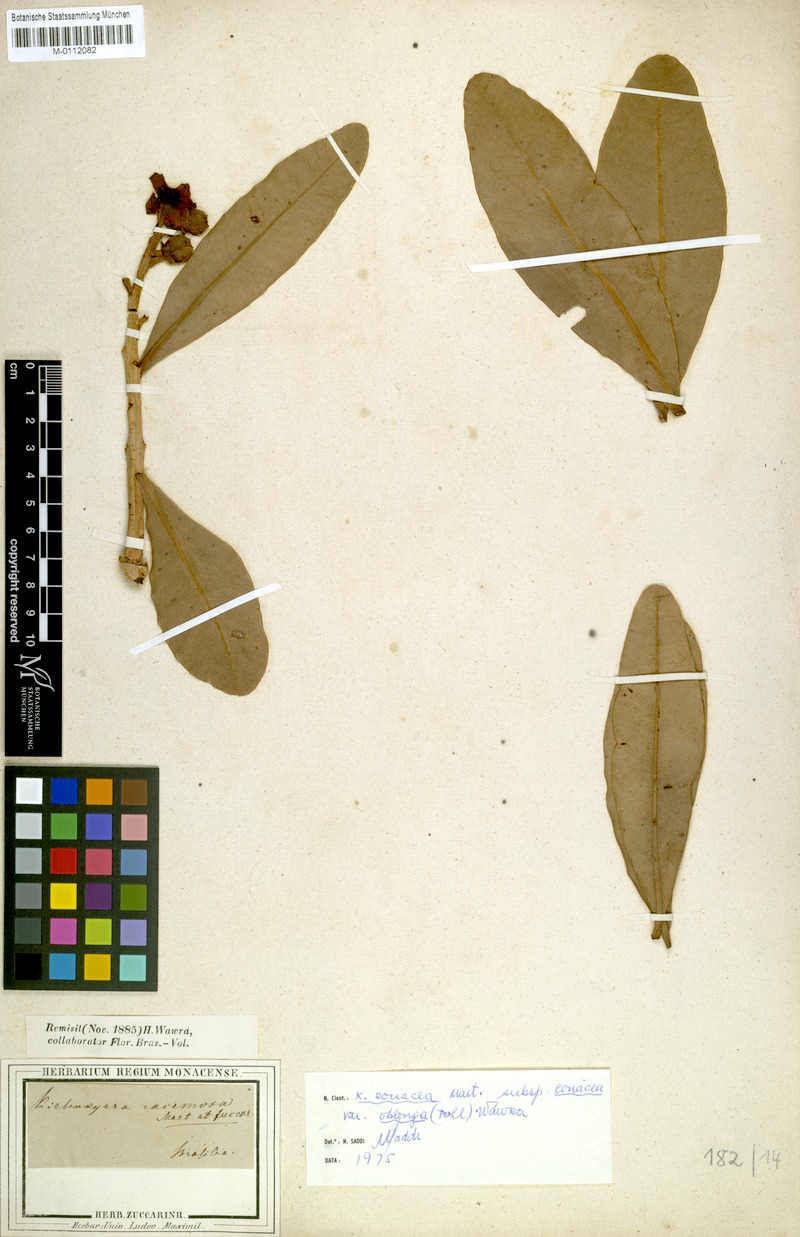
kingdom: Plantae
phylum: Tracheophyta
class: Magnoliopsida
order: Malpighiales
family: Calophyllaceae
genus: Kielmeyera
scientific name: Kielmeyera coriacea
